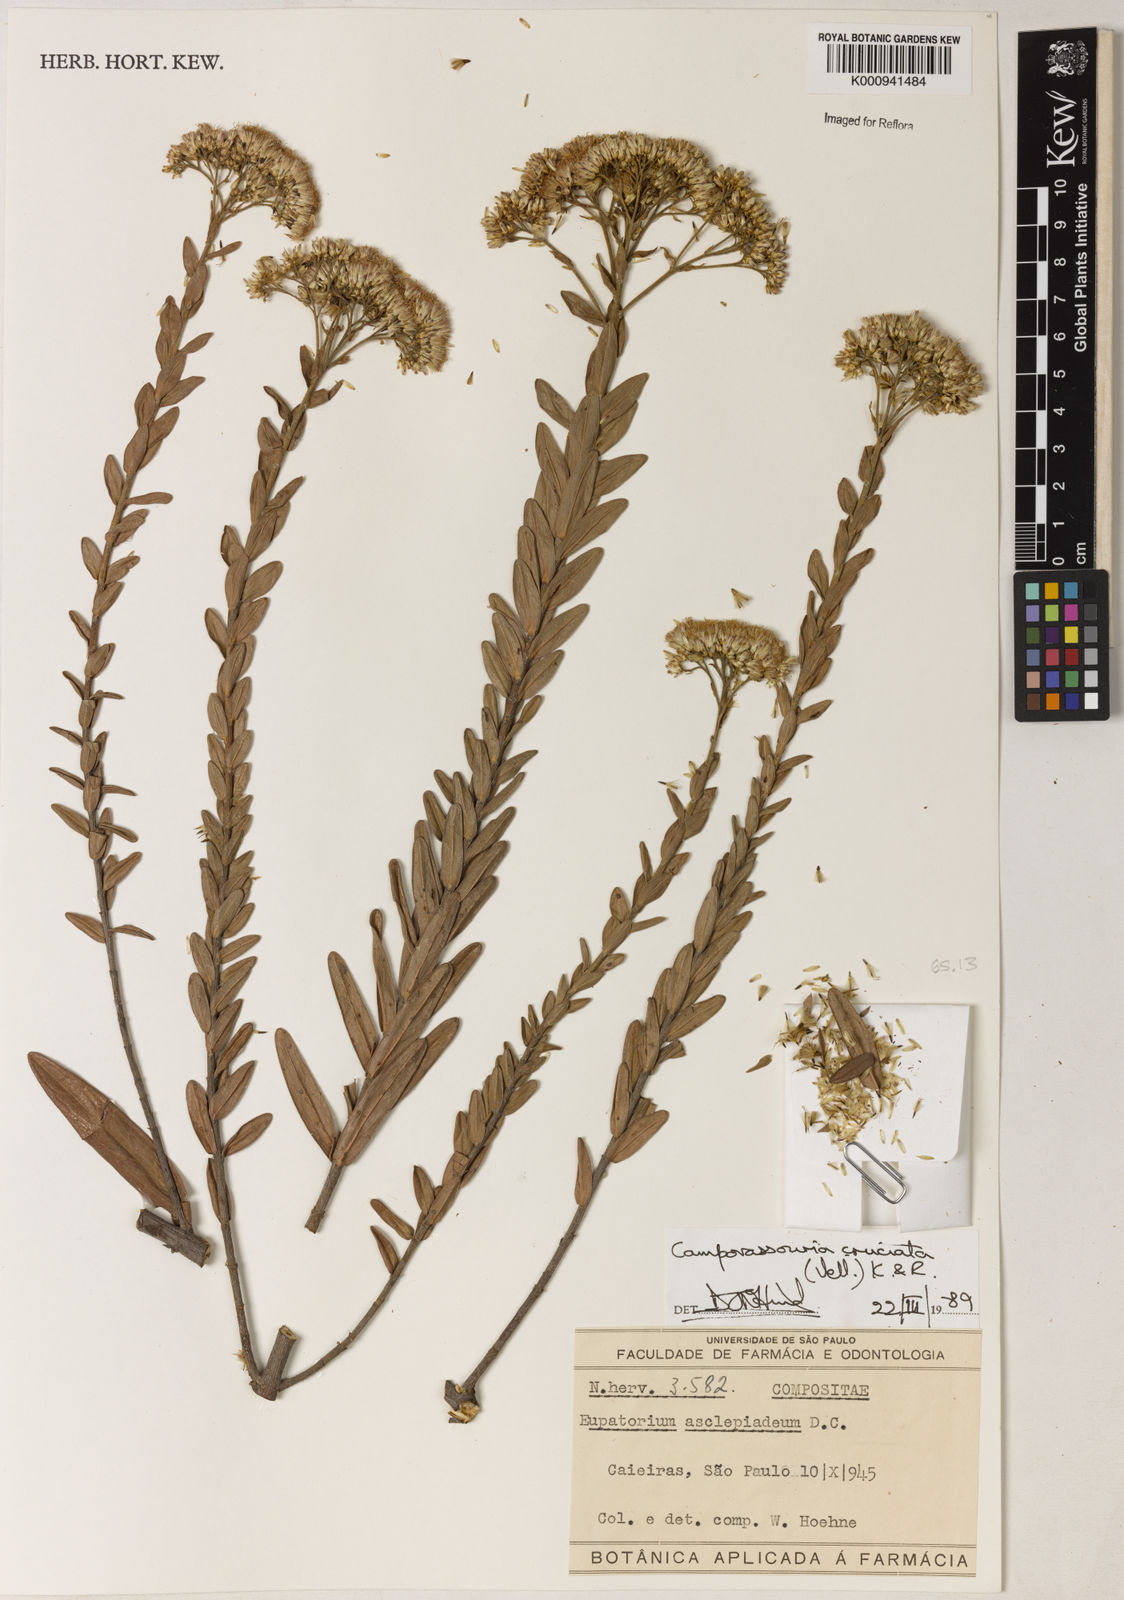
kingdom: Plantae
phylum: Tracheophyta
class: Magnoliopsida
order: Asterales
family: Asteraceae
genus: Campovassouria
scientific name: Campovassouria cruciata
